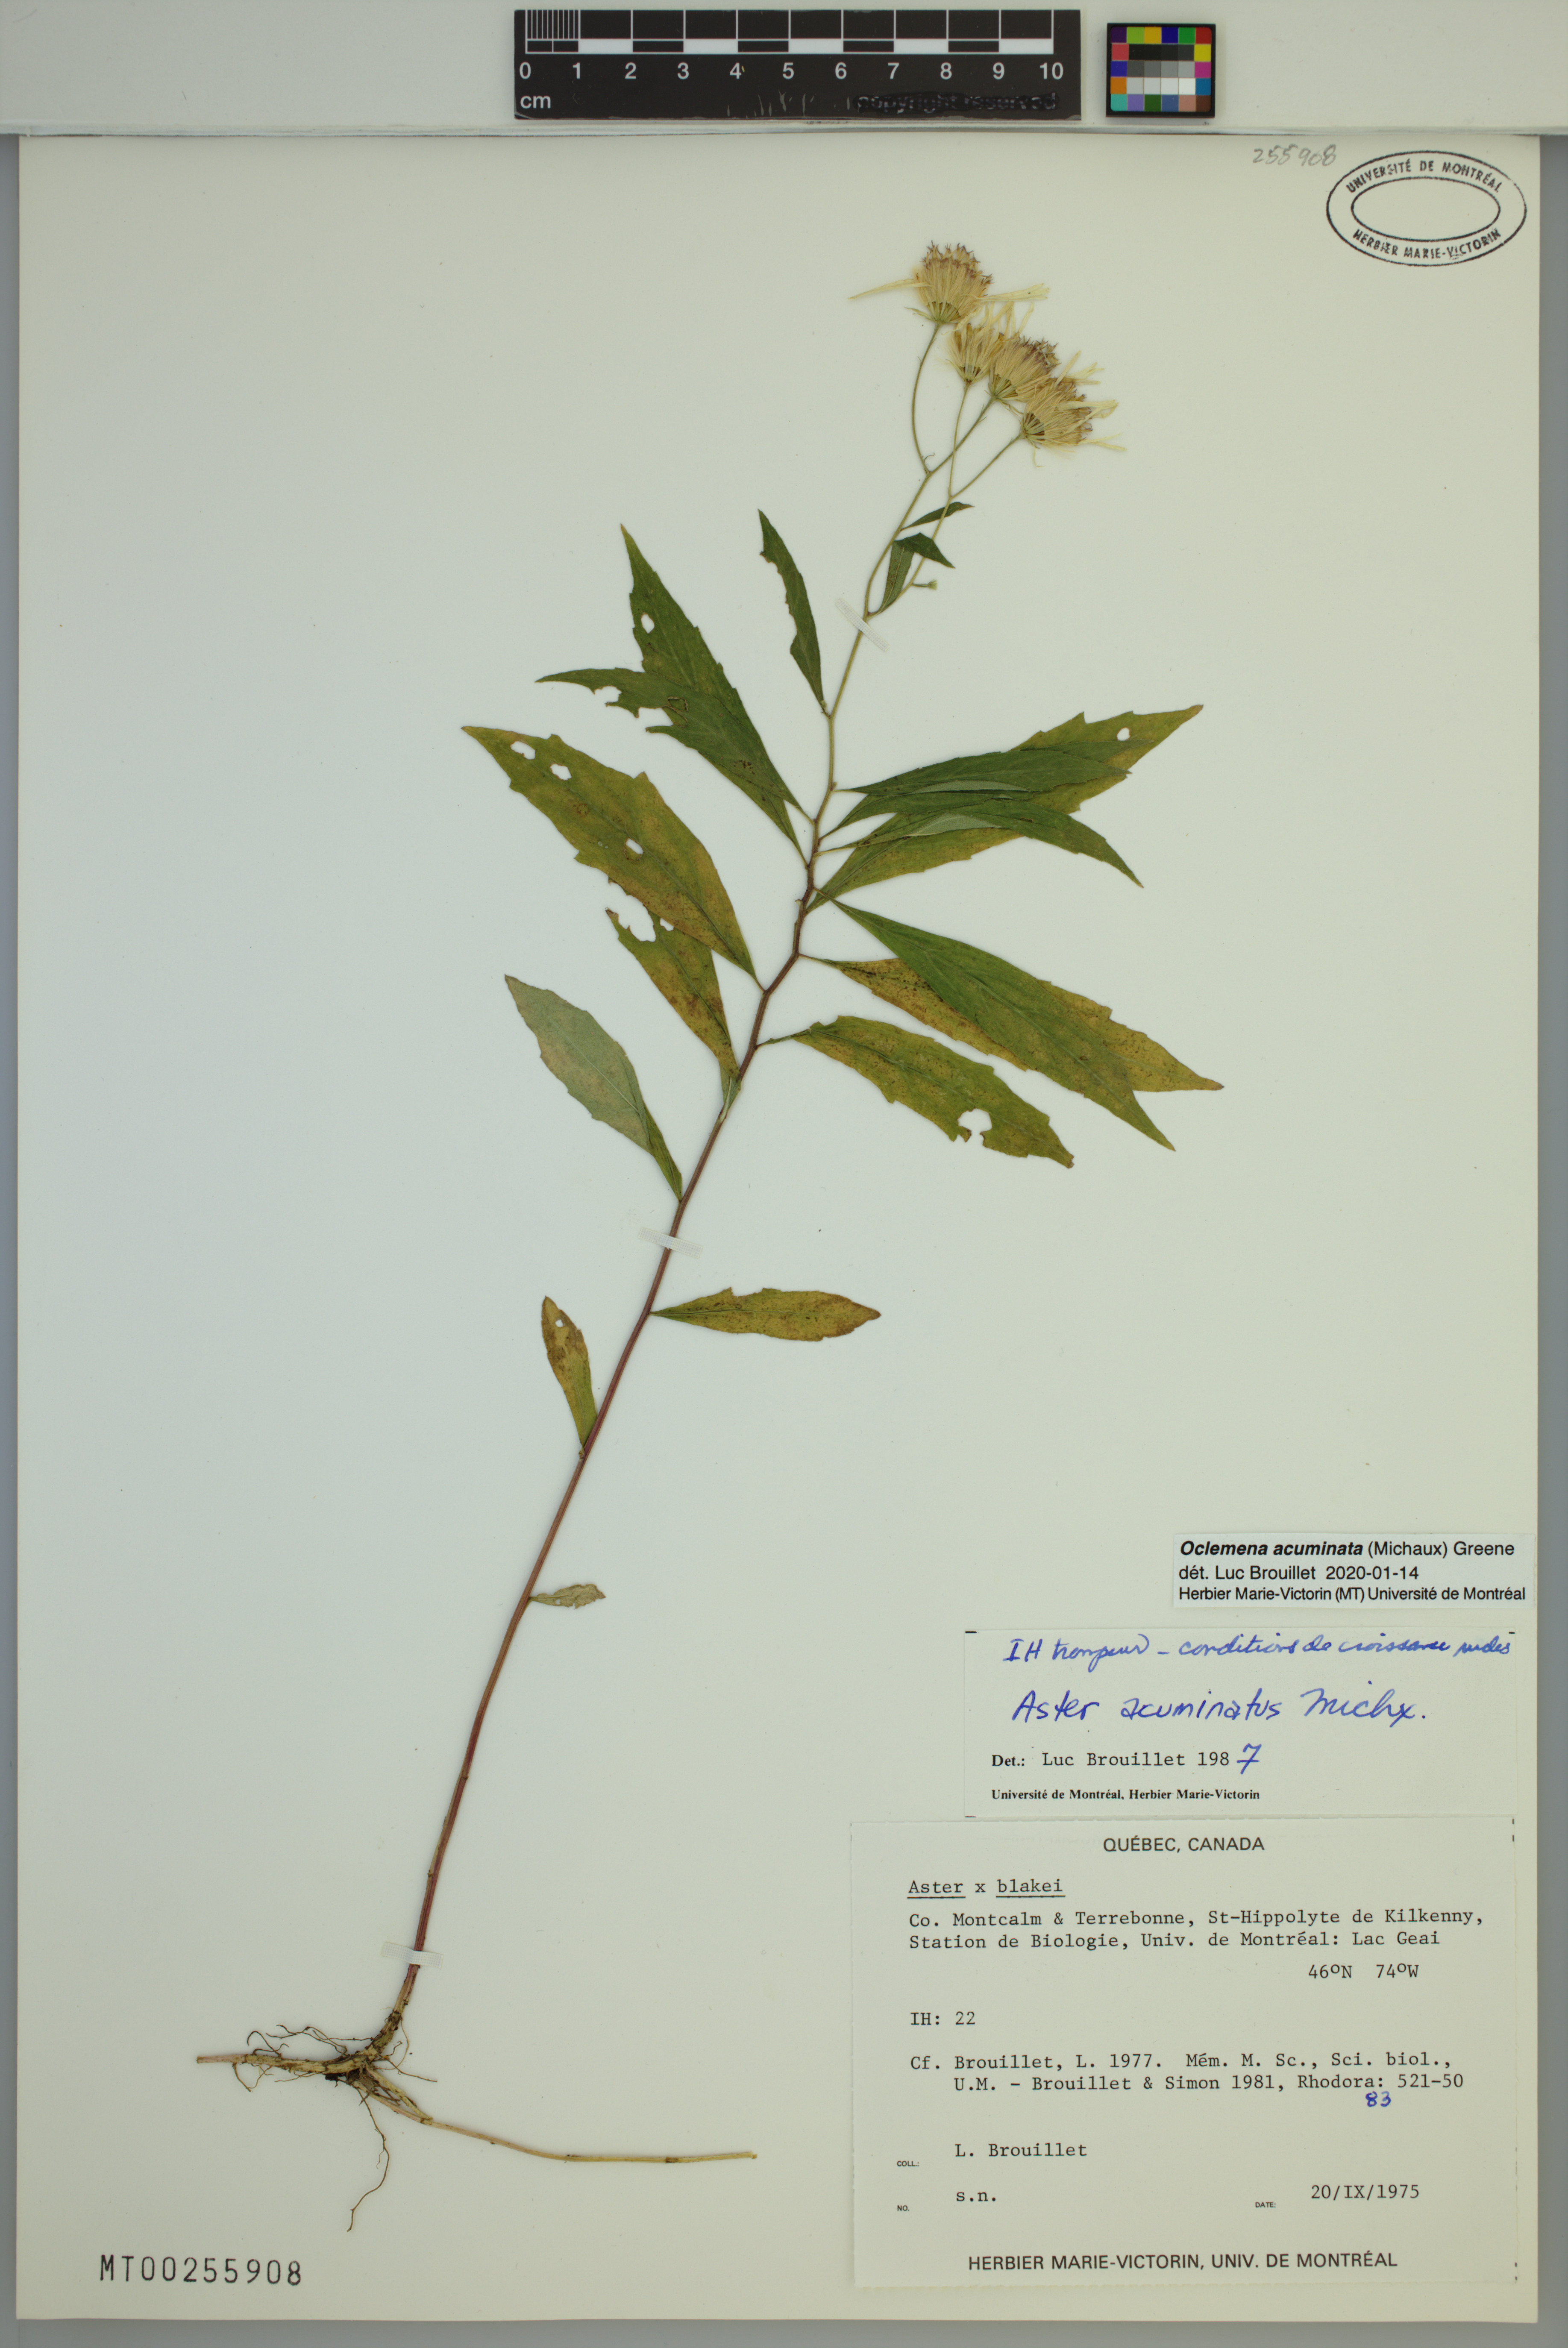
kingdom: Plantae
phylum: Tracheophyta
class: Magnoliopsida
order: Asterales
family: Asteraceae
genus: Oclemena
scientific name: Oclemena acuminata
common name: Mountain aster
